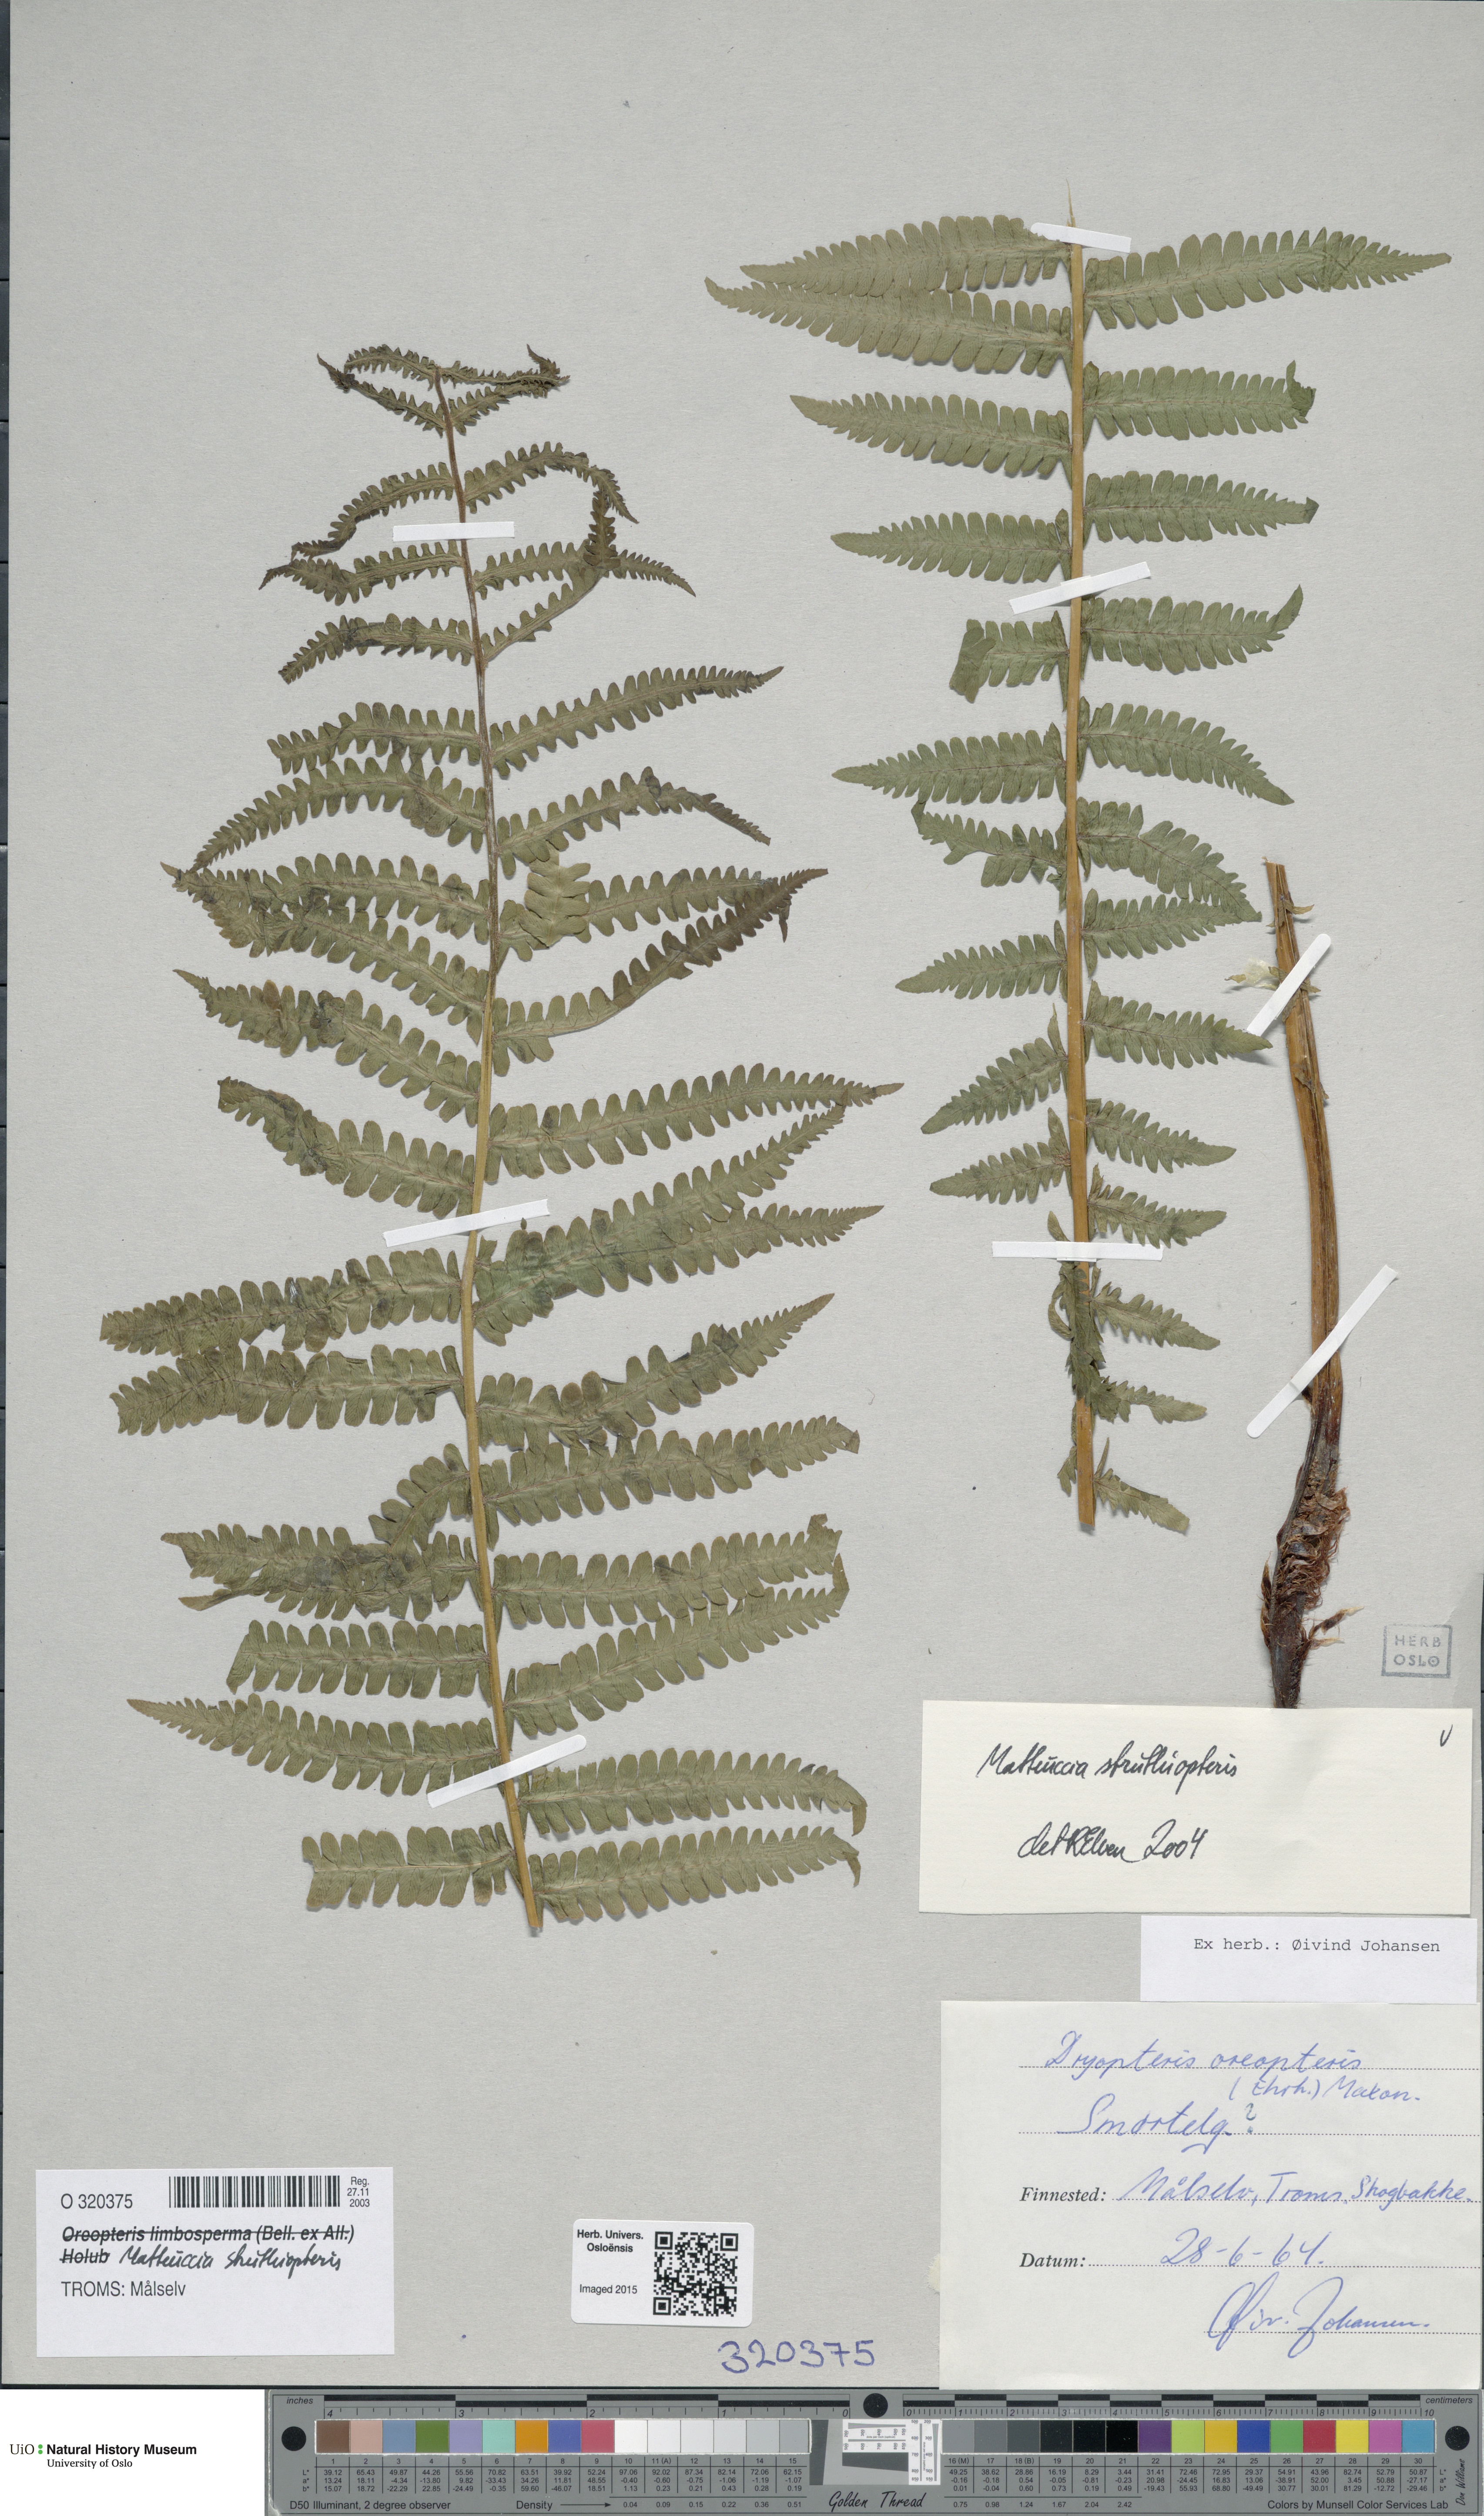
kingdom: Plantae
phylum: Tracheophyta
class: Polypodiopsida
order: Polypodiales
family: Onocleaceae
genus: Matteuccia
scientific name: Matteuccia struthiopteris
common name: Ostrich fern
